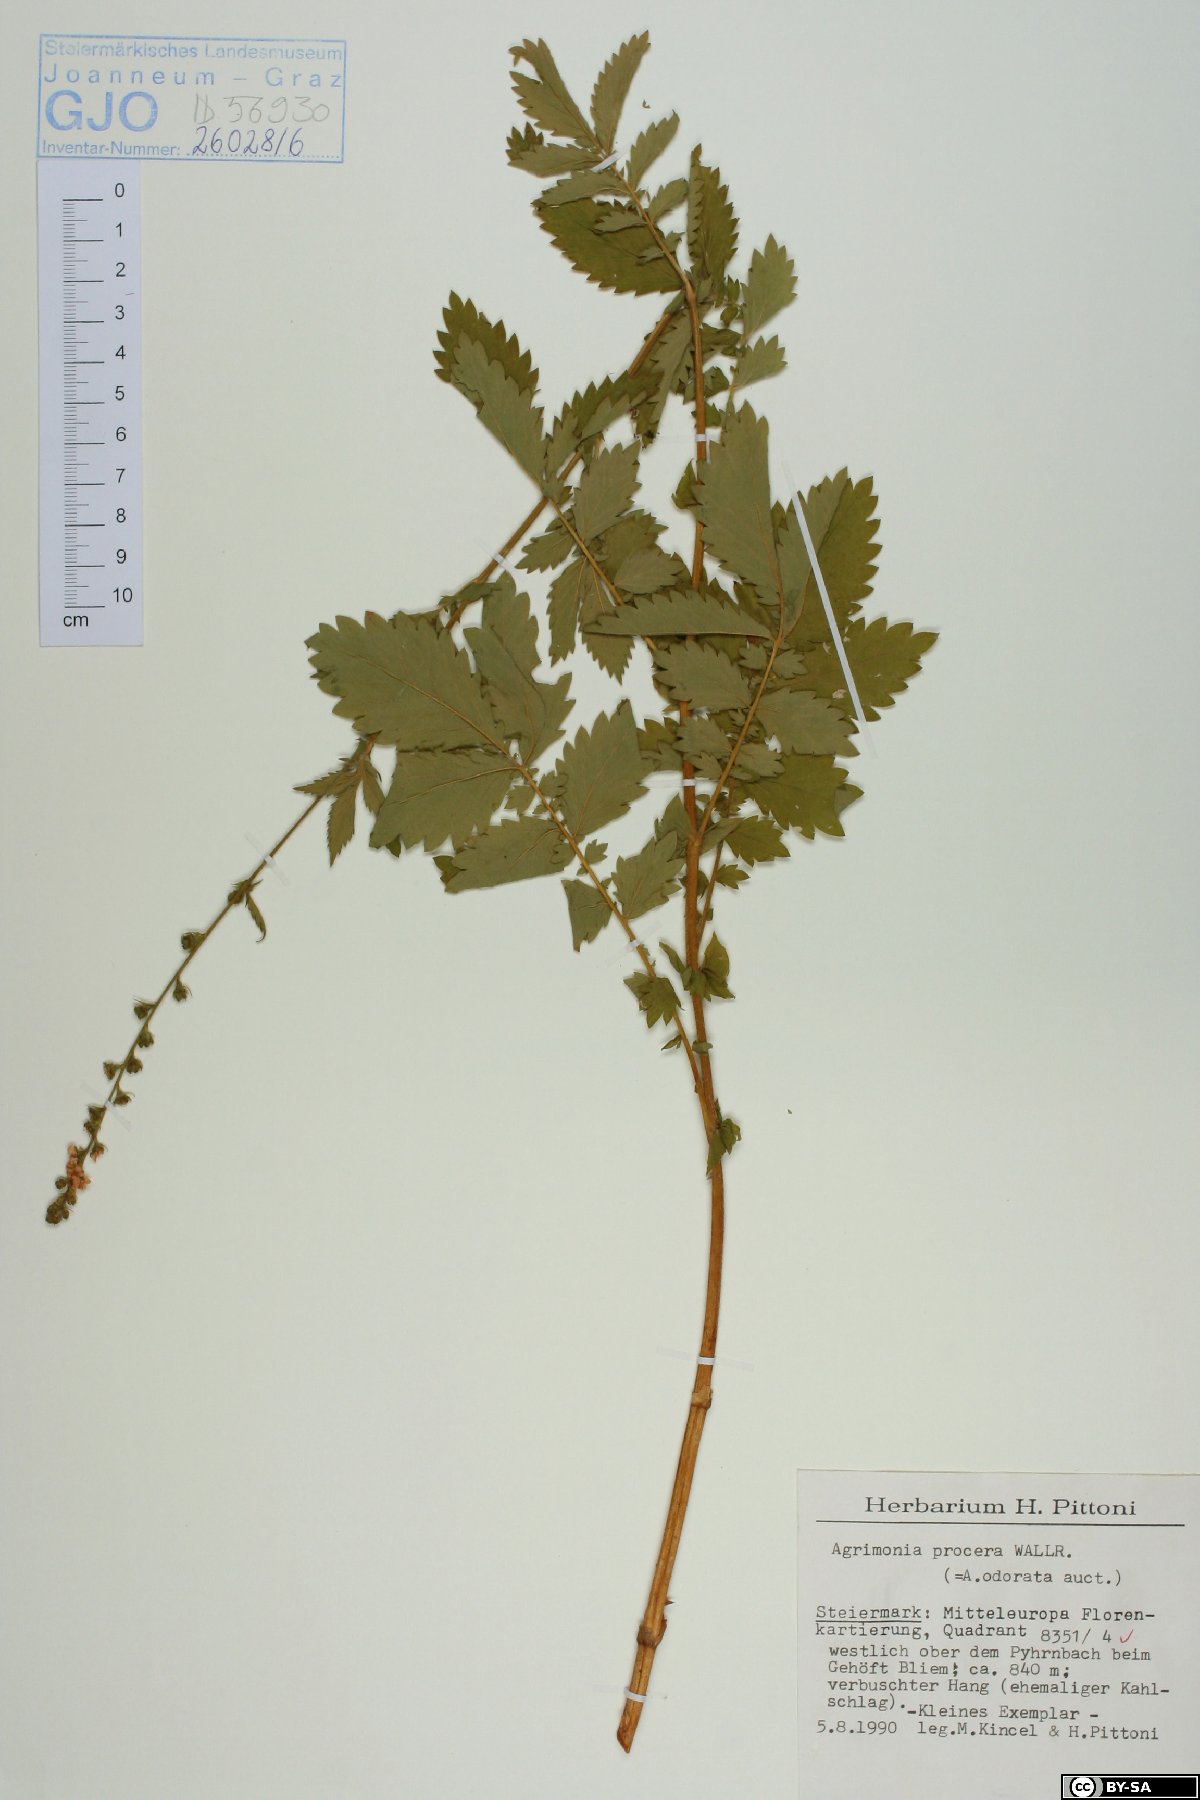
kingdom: Plantae
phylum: Tracheophyta
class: Magnoliopsida
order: Rosales
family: Rosaceae
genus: Agrimonia
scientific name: Agrimonia procera
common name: Fragrant agrimony
